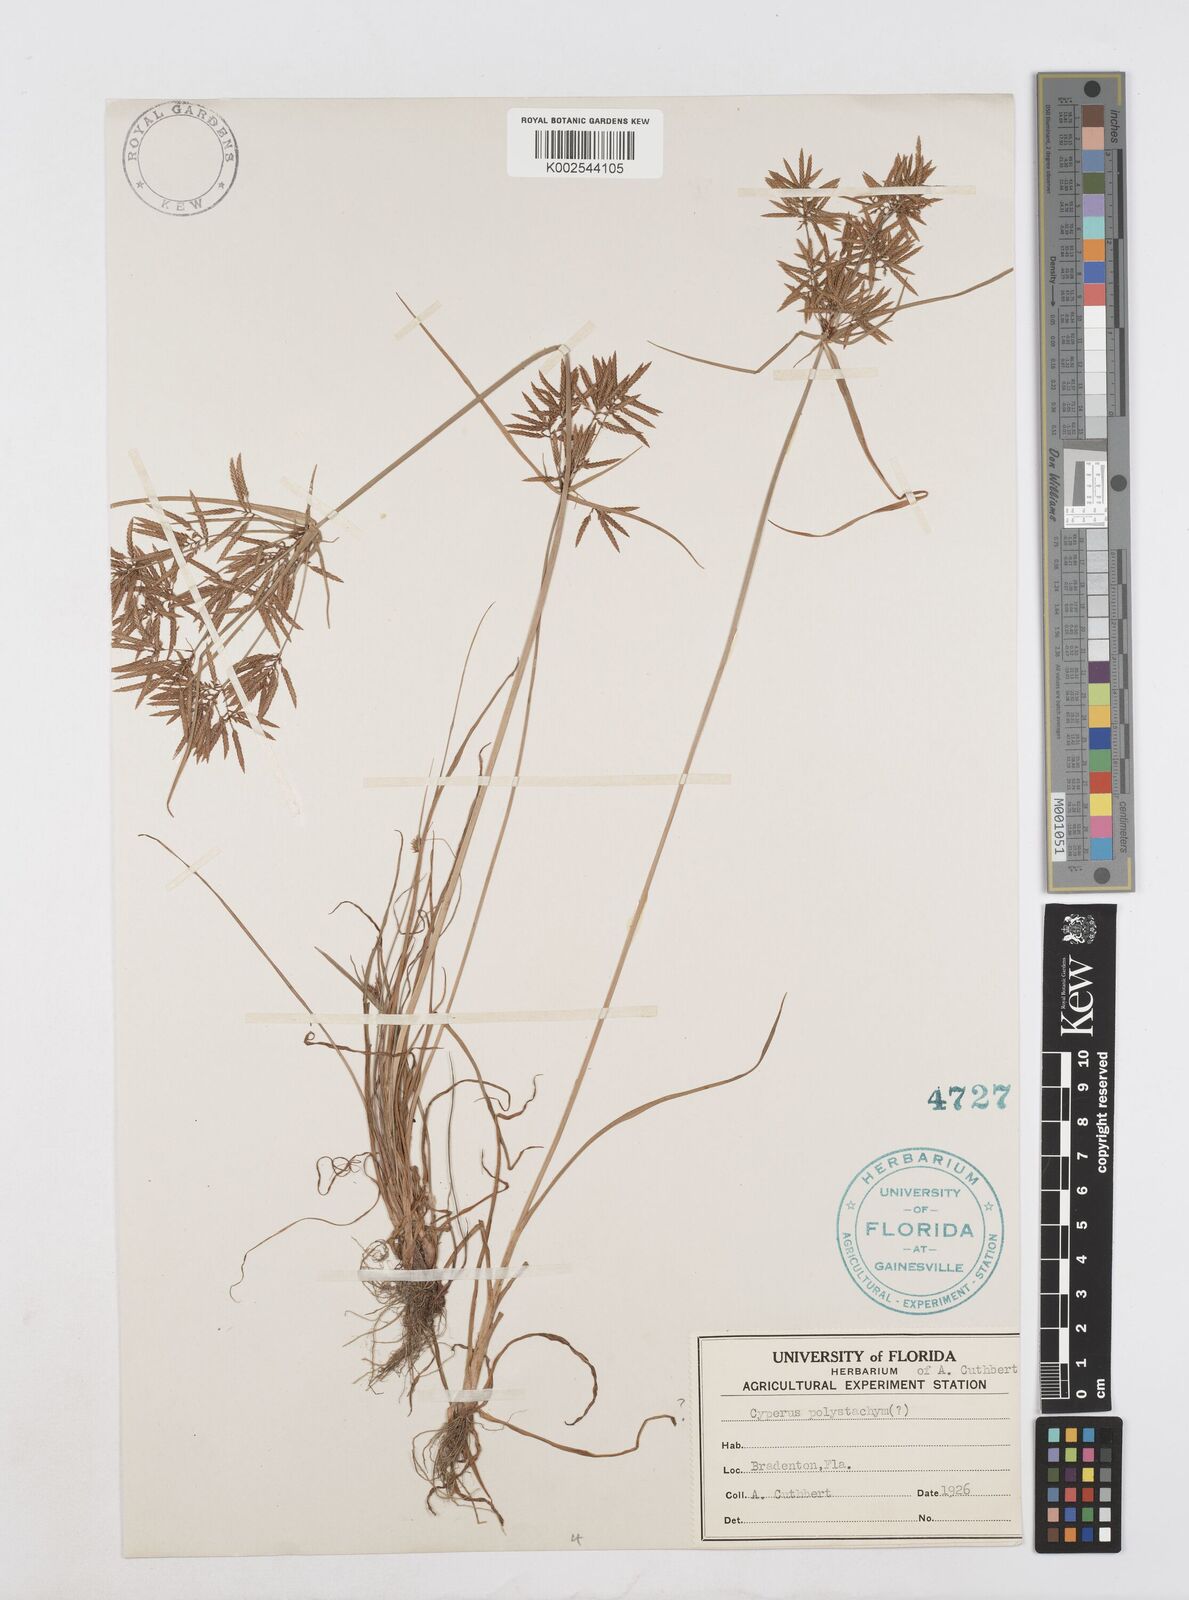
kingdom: Plantae
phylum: Tracheophyta
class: Liliopsida
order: Poales
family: Cyperaceae
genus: Cyperus
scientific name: Cyperus
